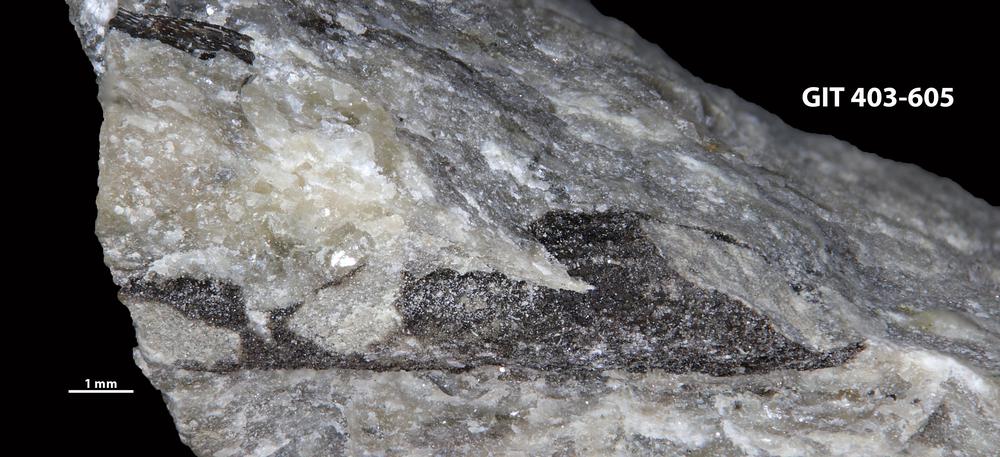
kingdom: Animalia
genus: Palaeophycus
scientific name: Palaeophycus tubularis
